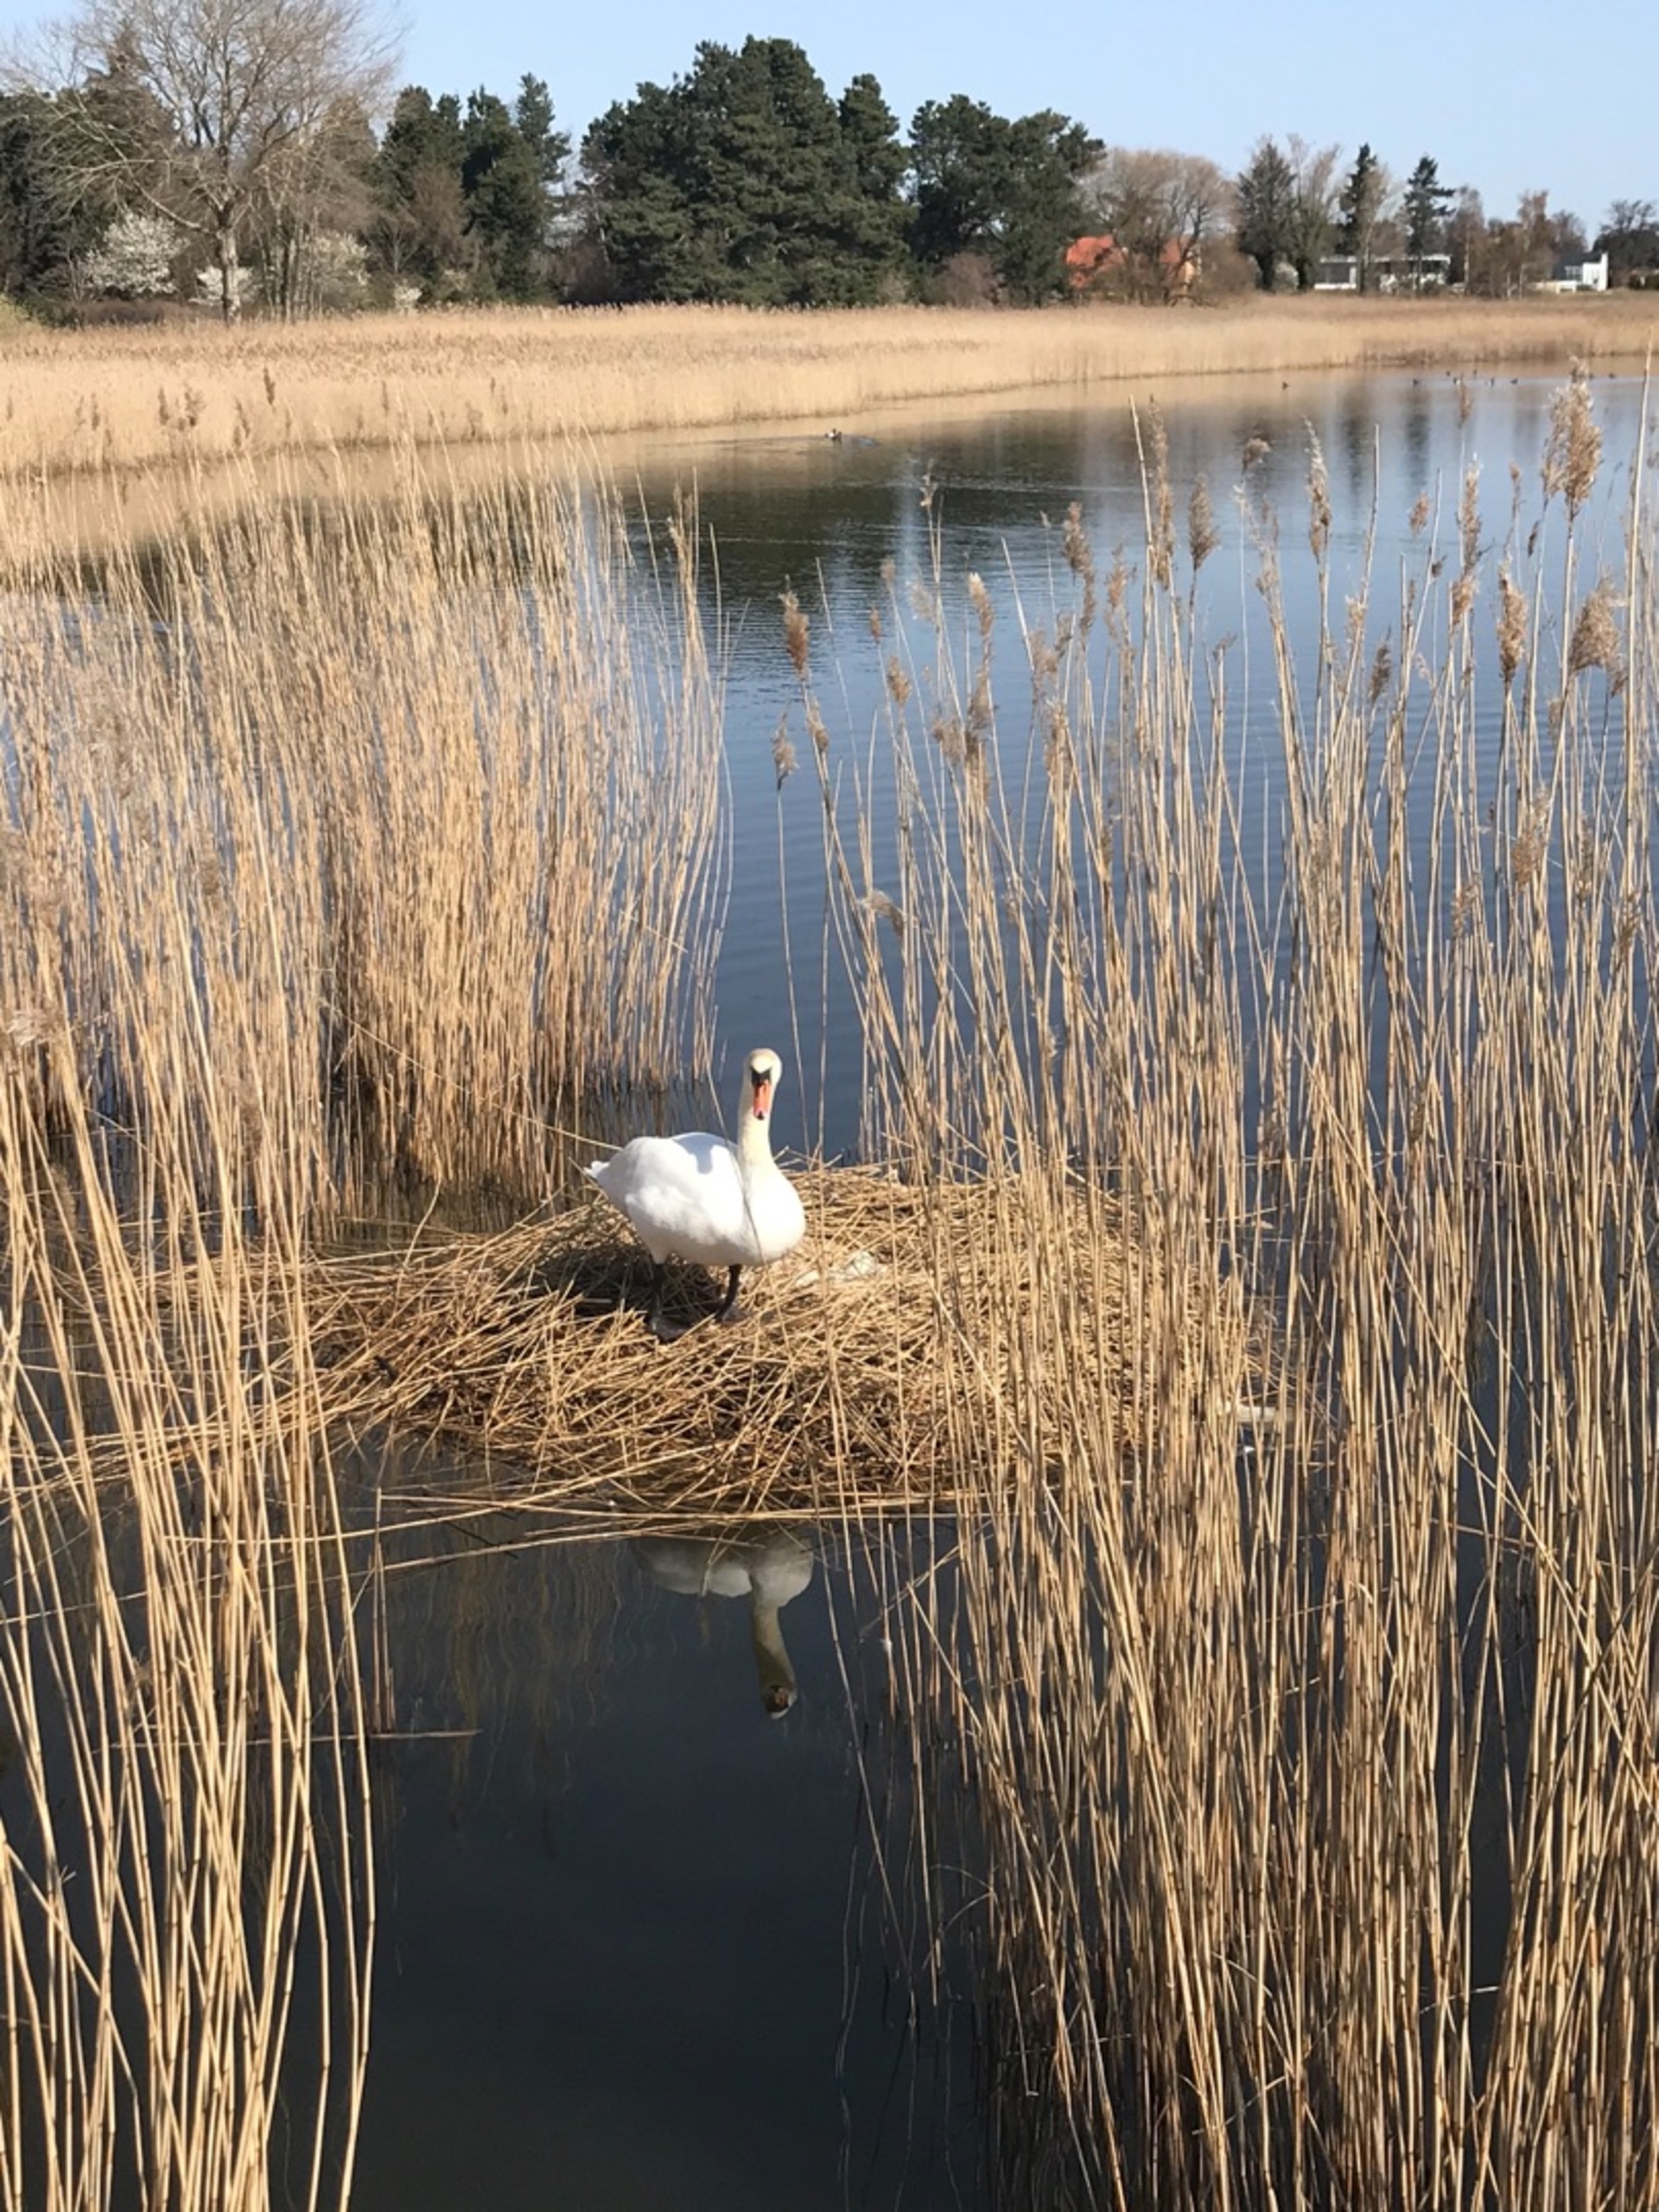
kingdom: Animalia
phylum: Chordata
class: Aves
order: Anseriformes
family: Anatidae
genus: Cygnus
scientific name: Cygnus olor
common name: Knopsvane
